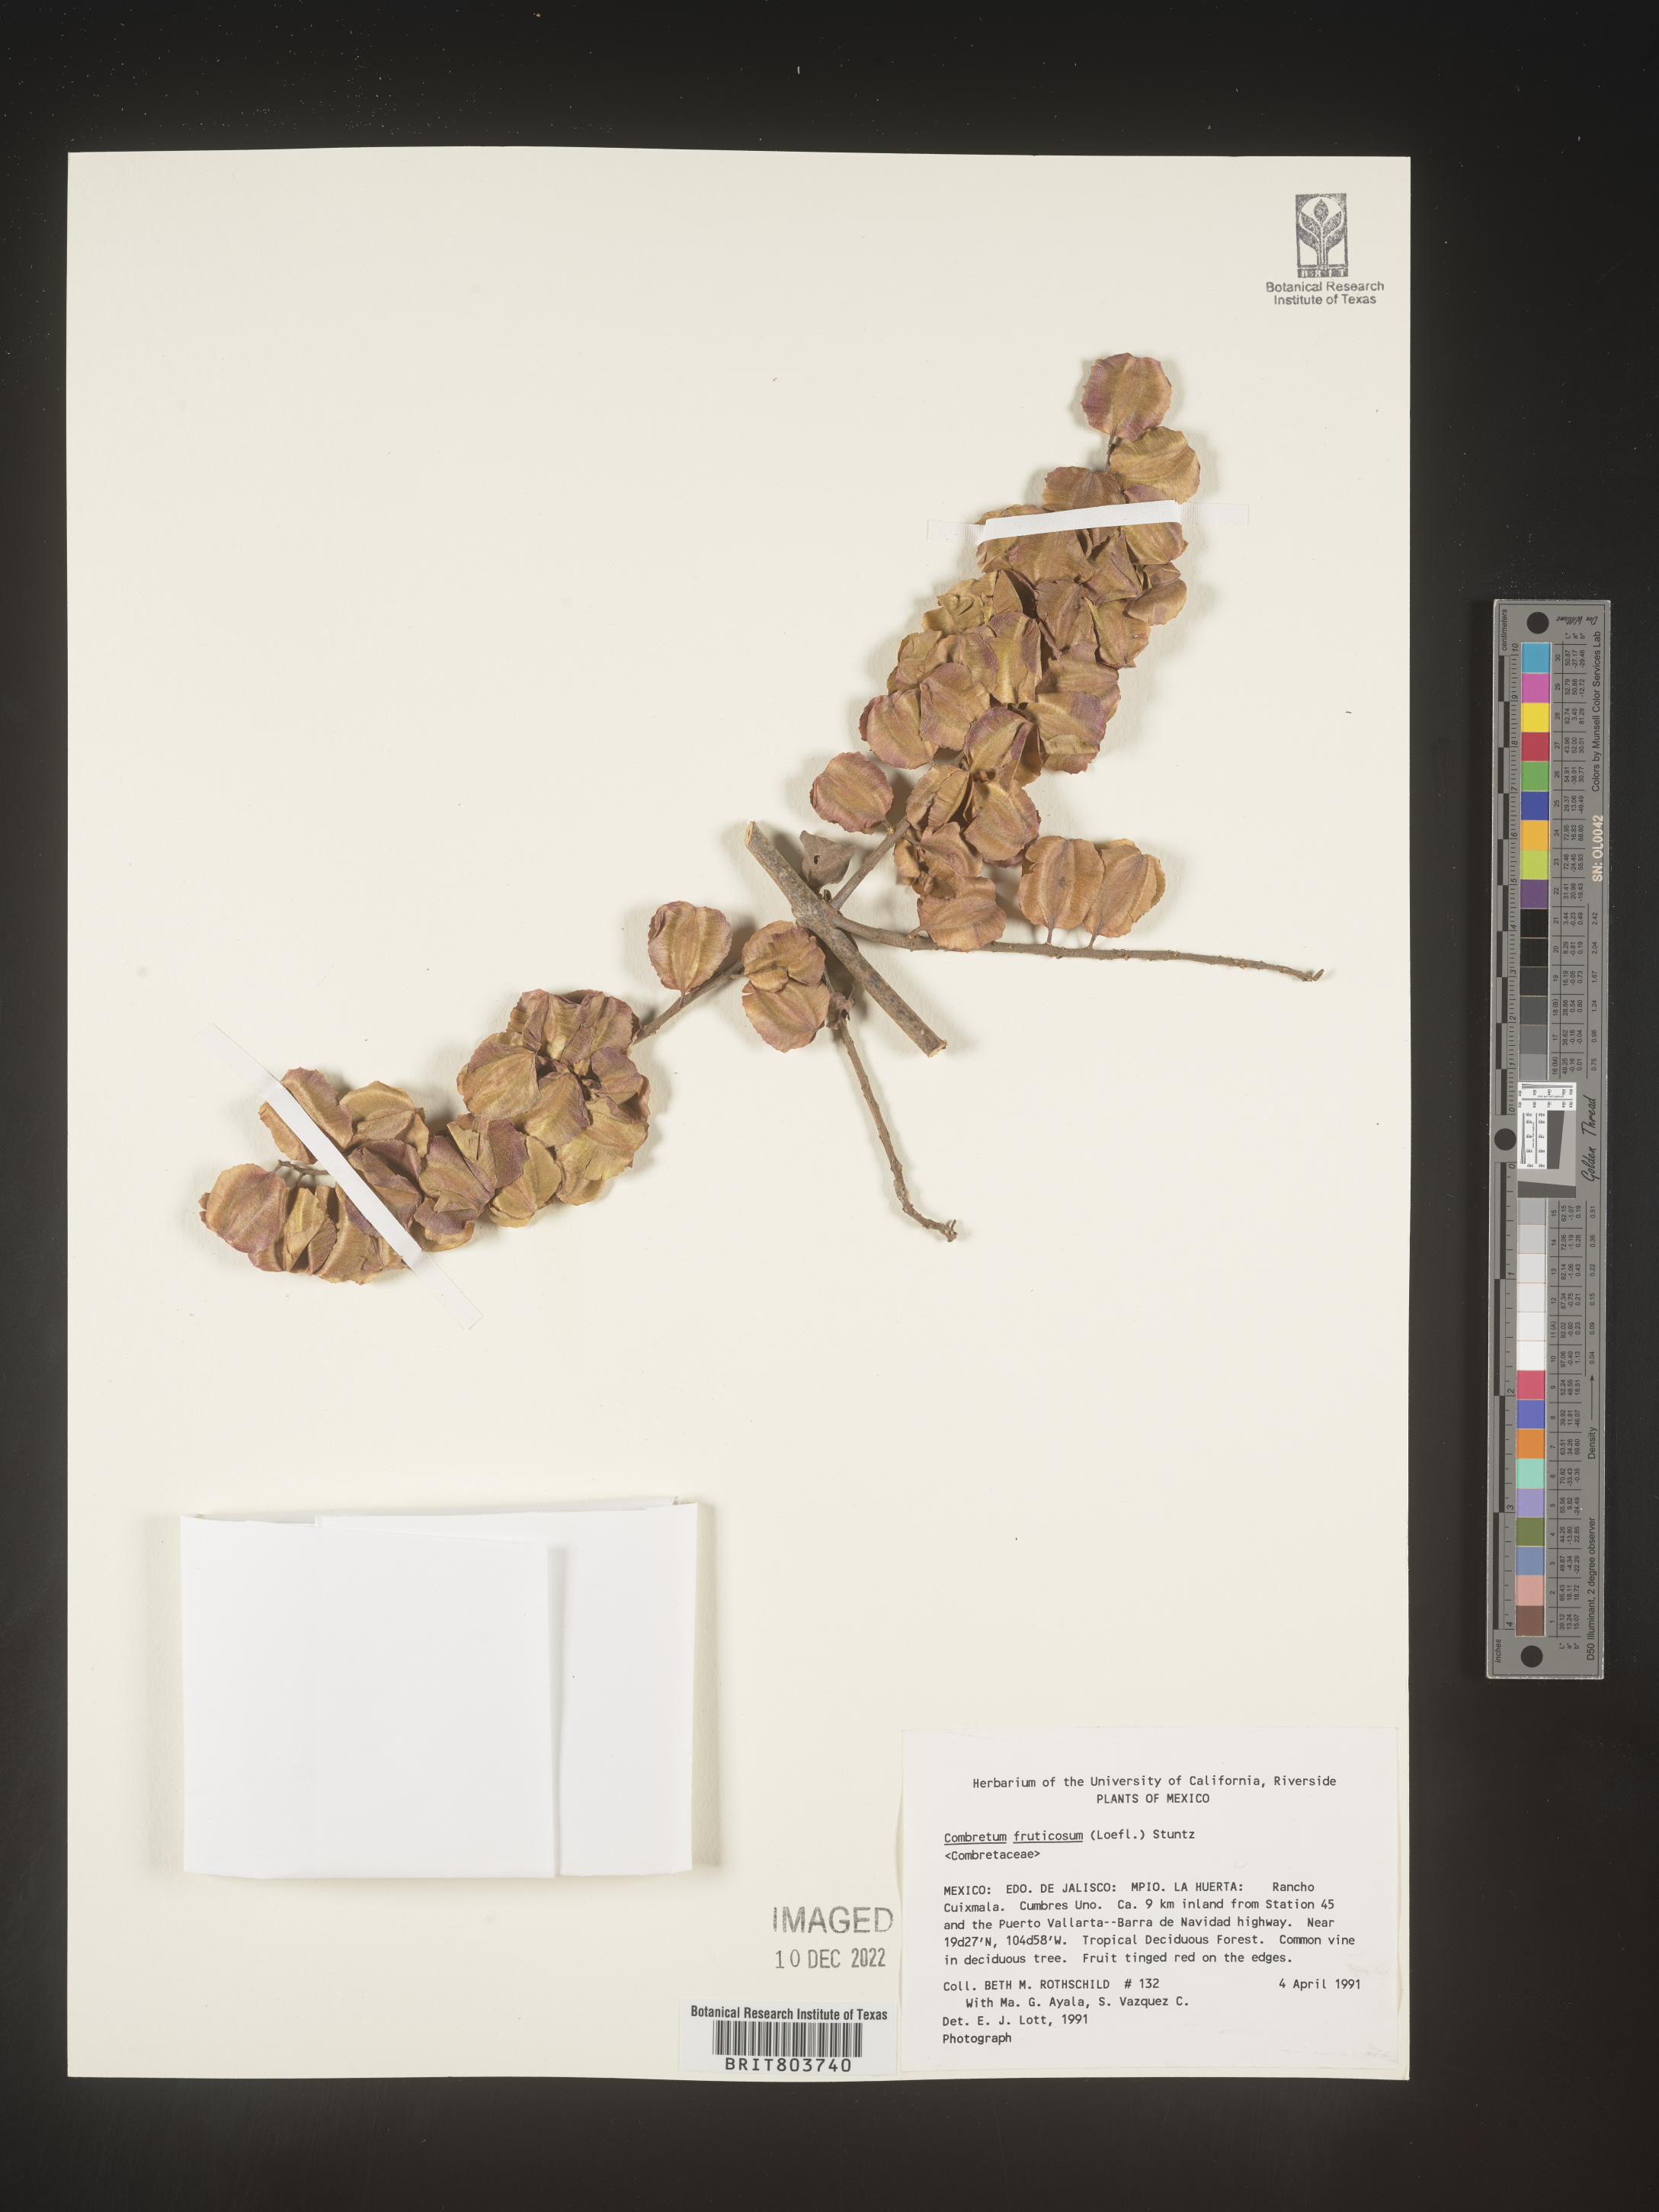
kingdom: Plantae
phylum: Tracheophyta
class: Magnoliopsida
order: Myrtales
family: Combretaceae
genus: Combretum
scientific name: Combretum
